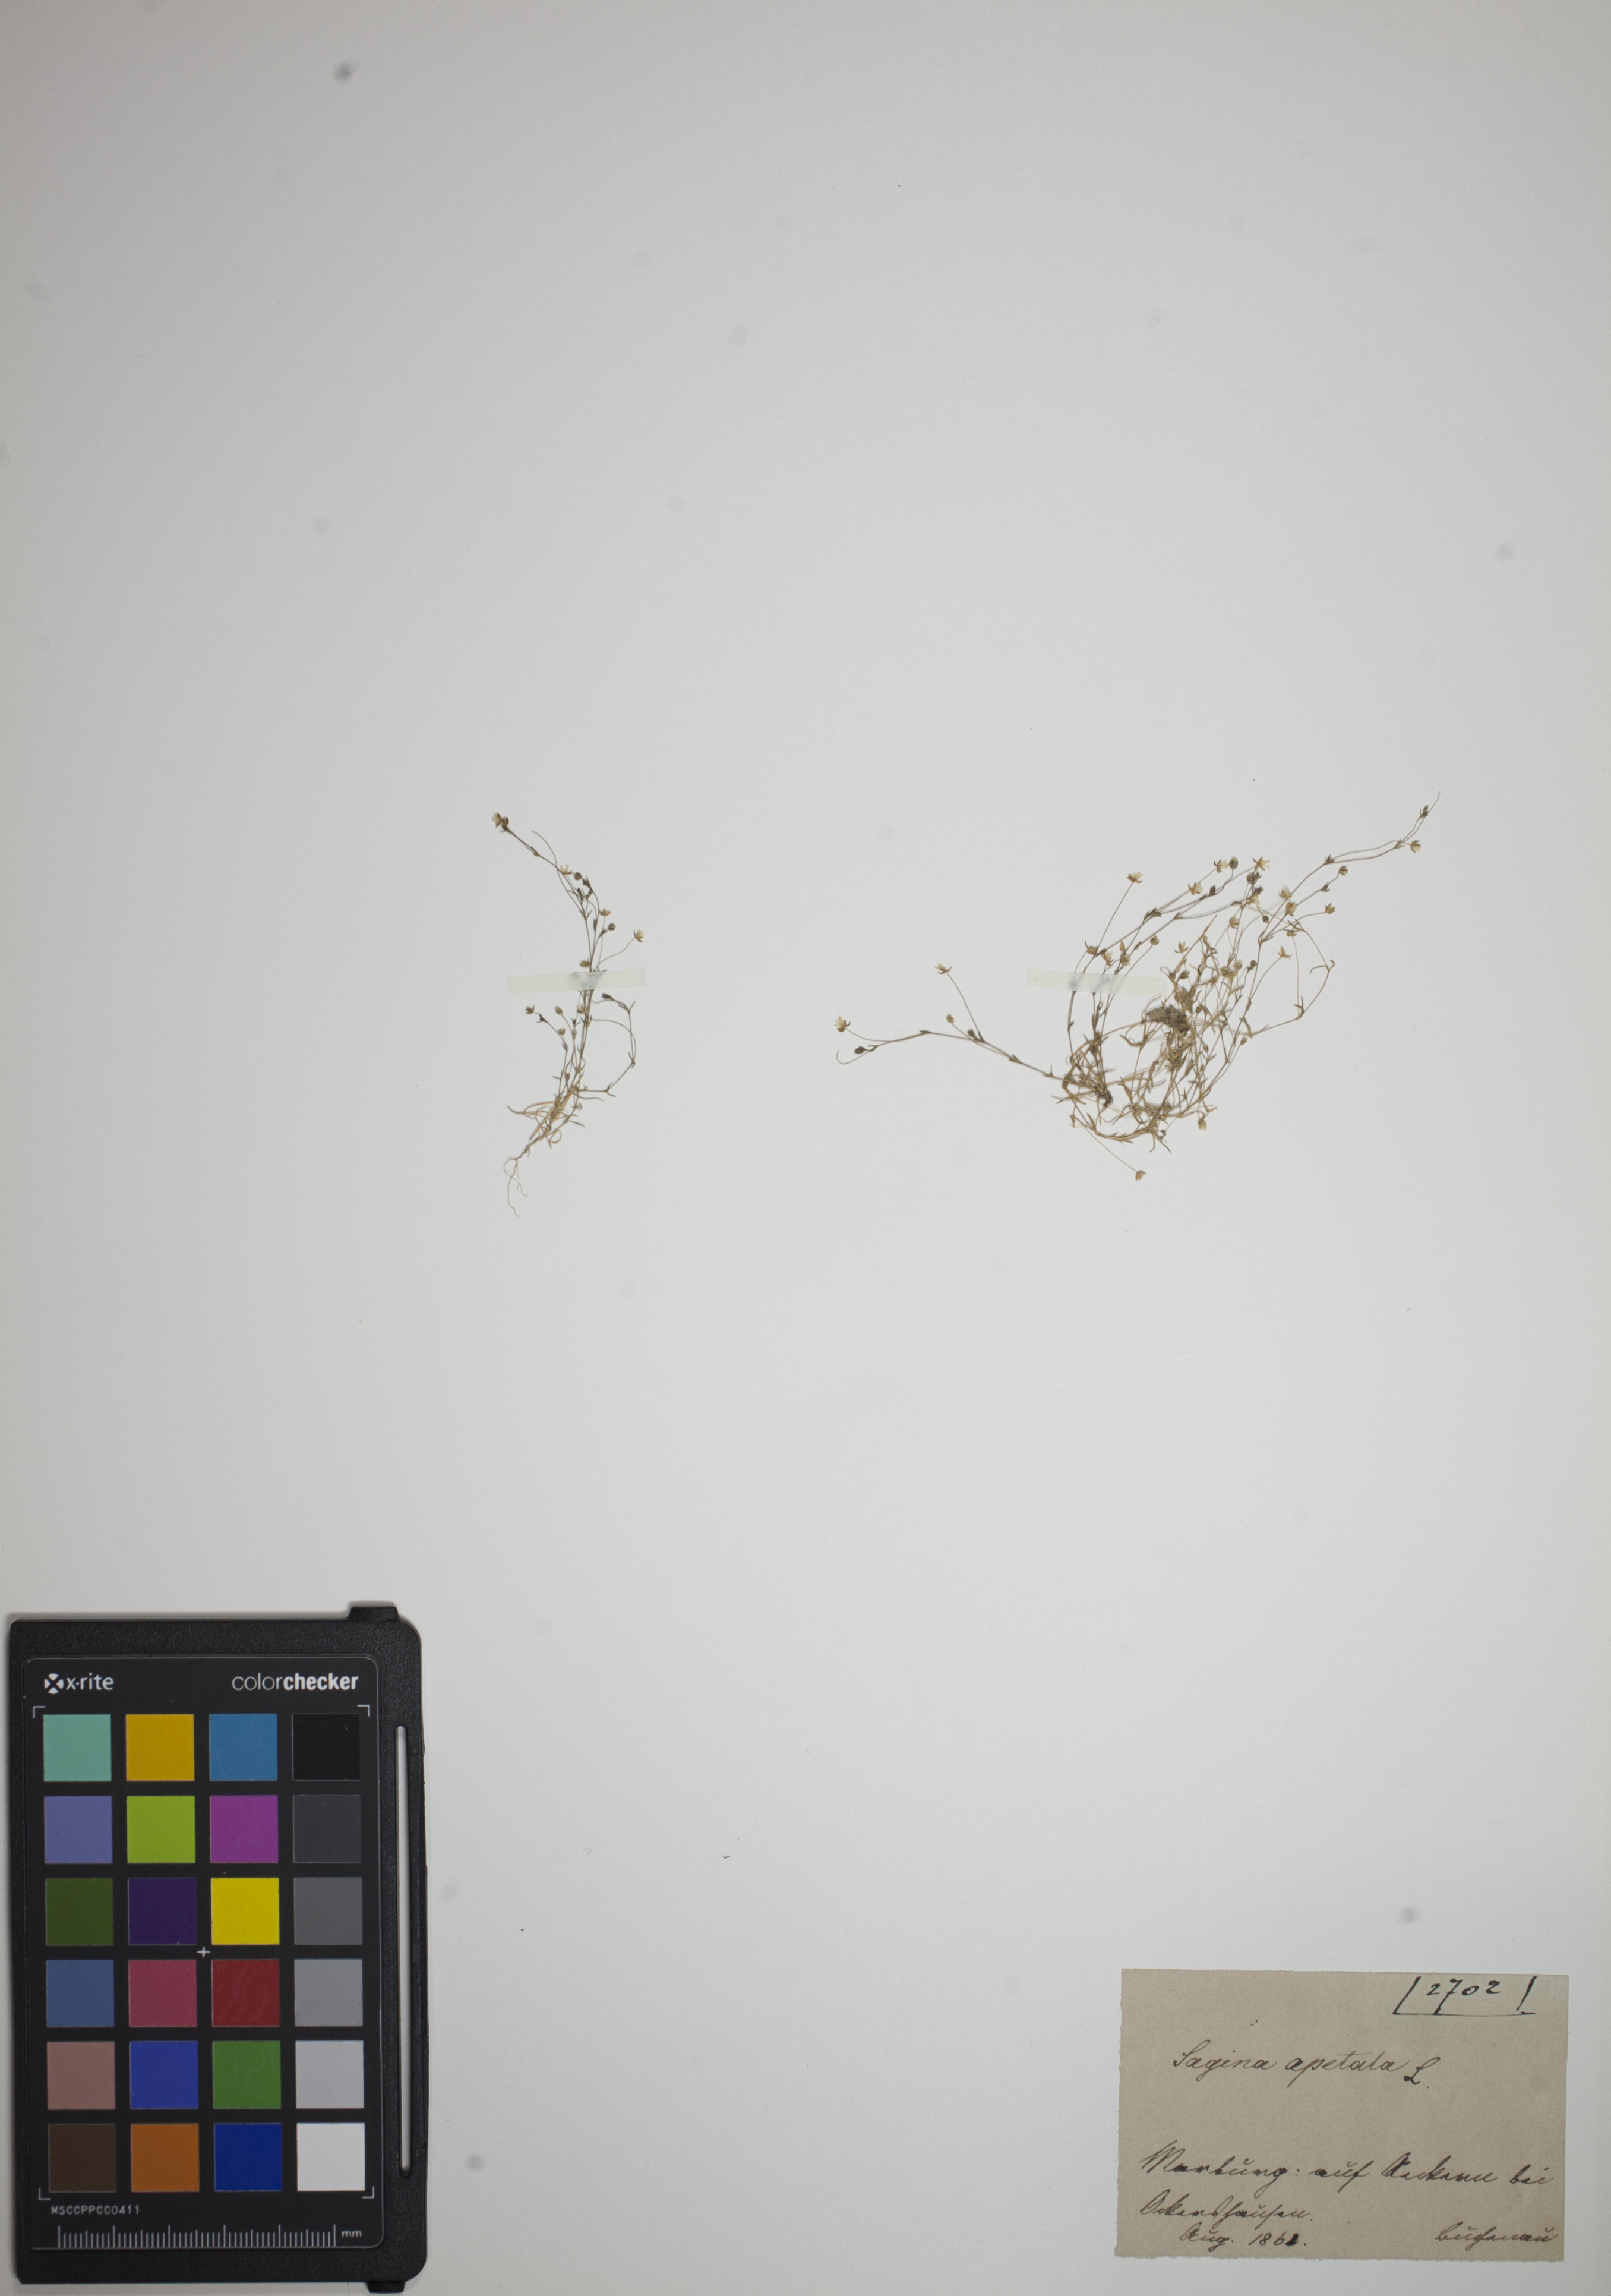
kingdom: Plantae
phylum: Tracheophyta
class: Magnoliopsida
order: Caryophyllales
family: Caryophyllaceae
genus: Sagina
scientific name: Sagina apetala
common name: Annual pearlwort
